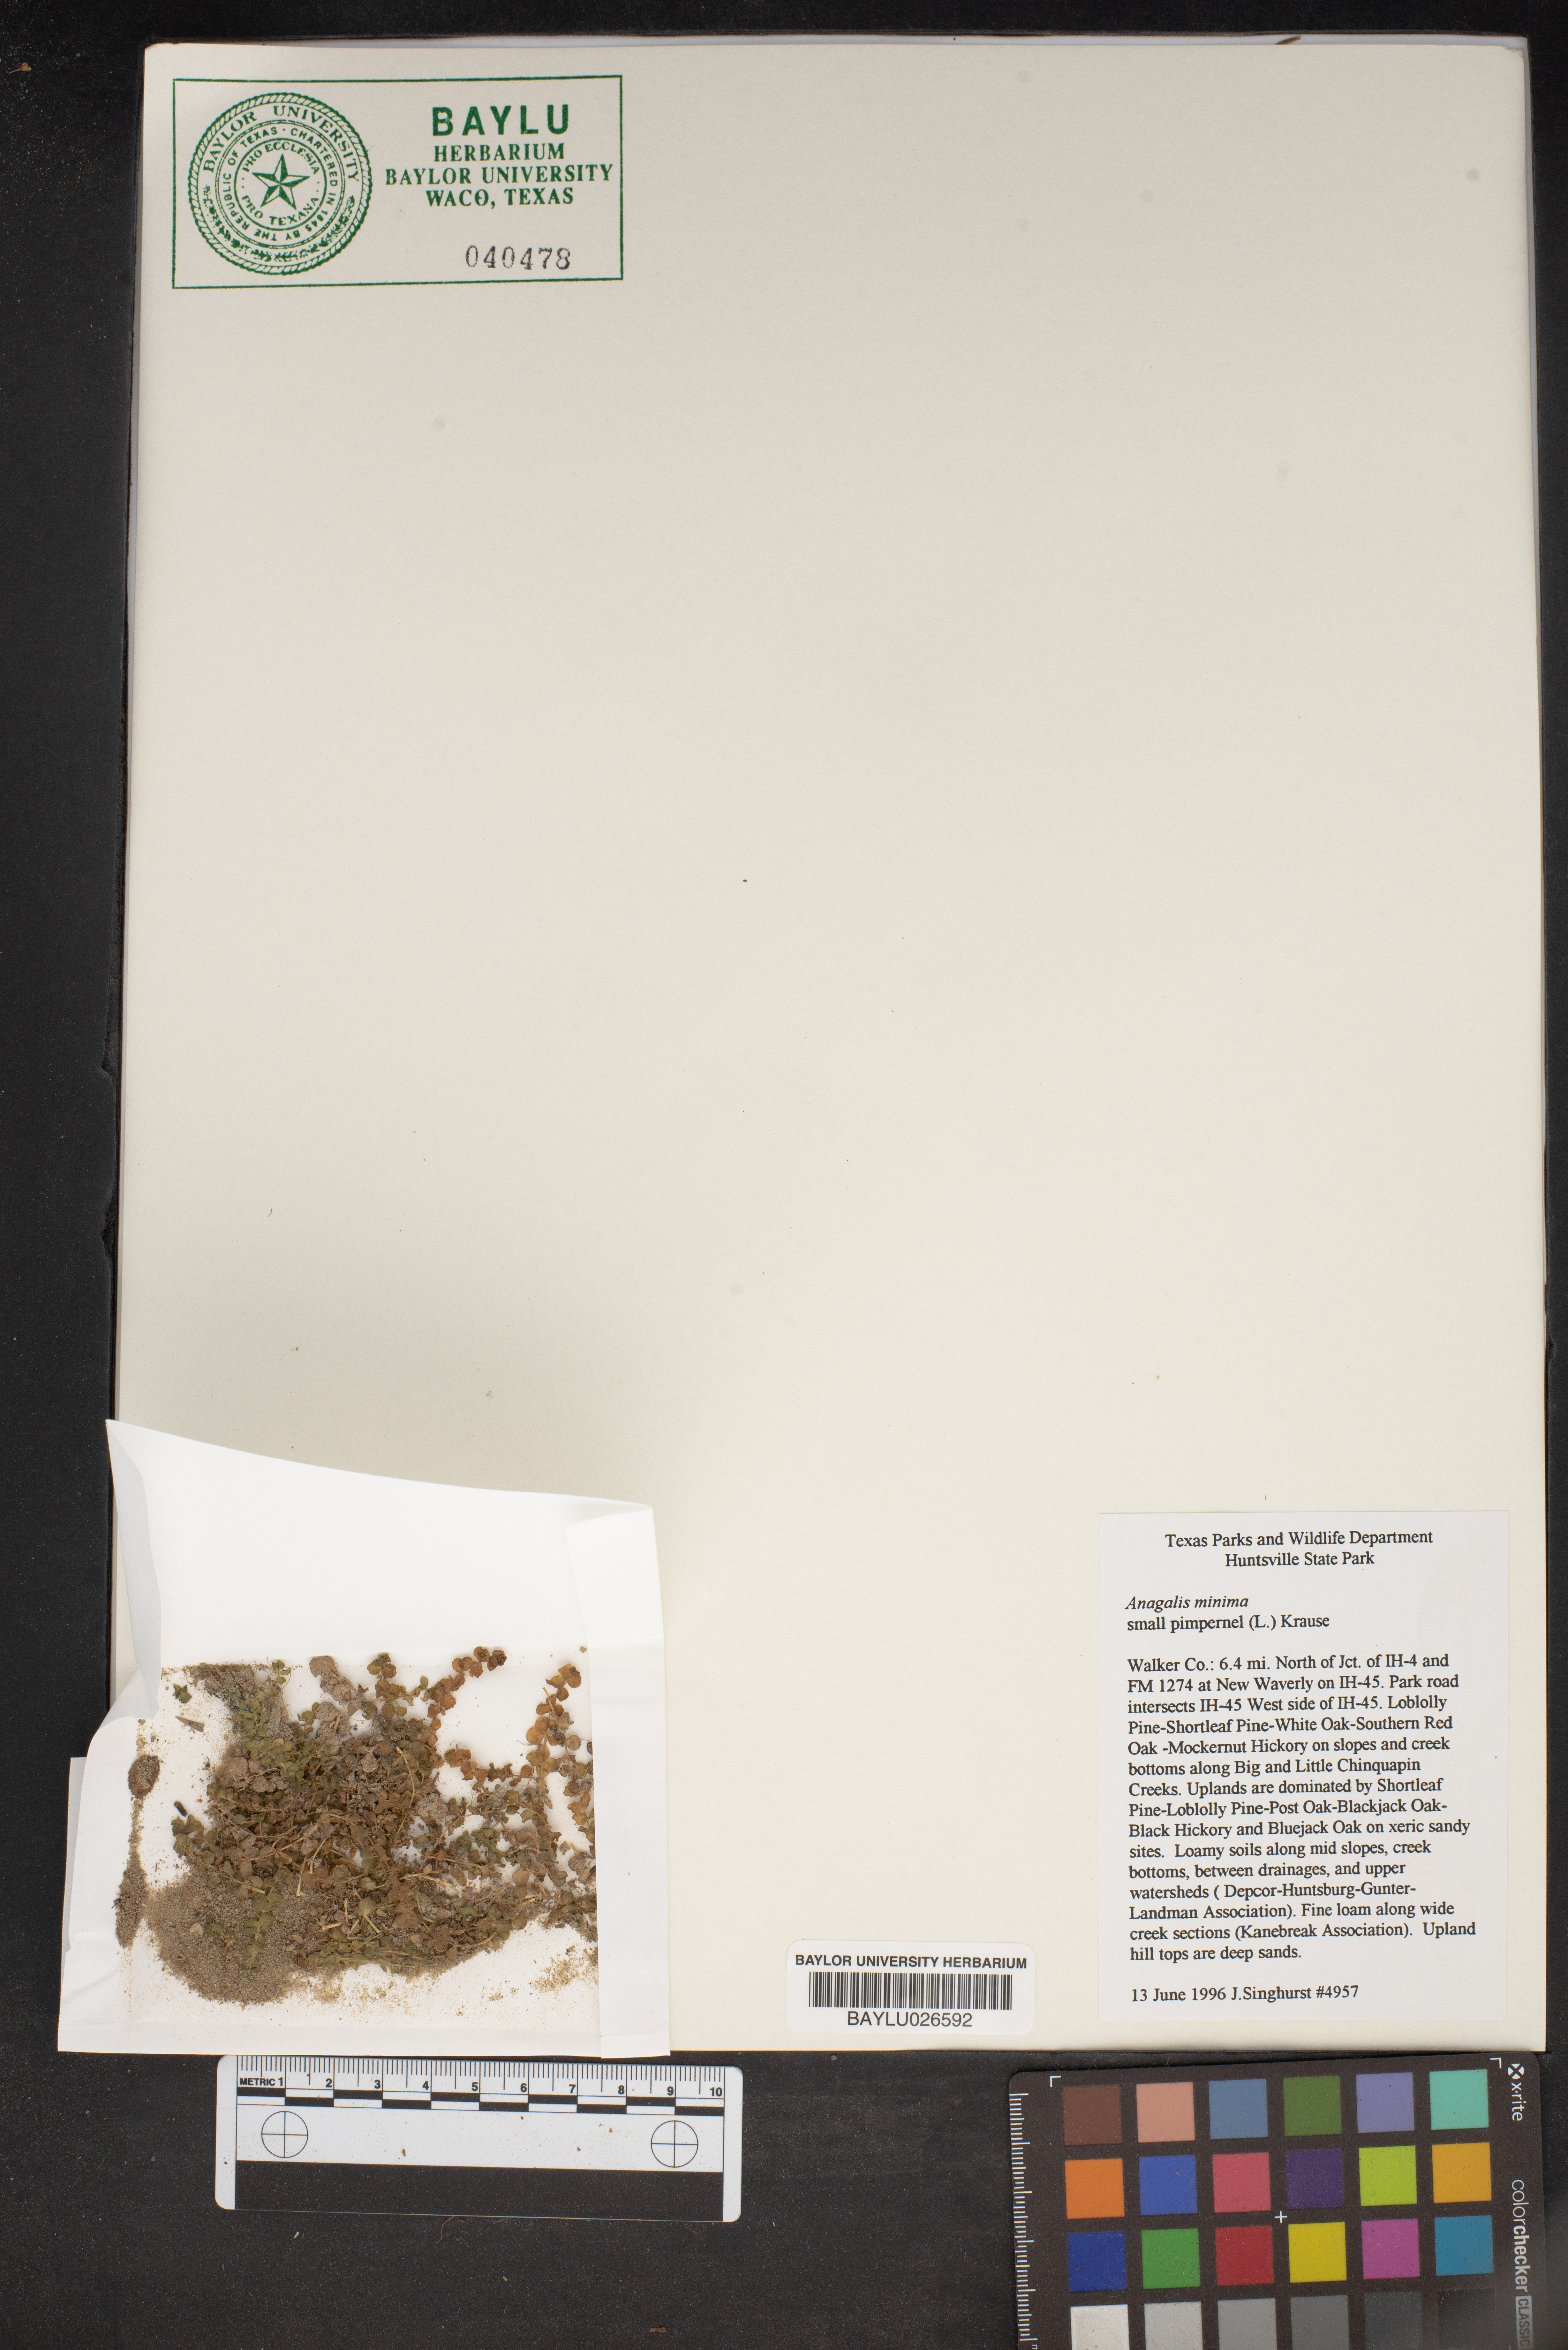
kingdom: Plantae
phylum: Tracheophyta
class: Magnoliopsida
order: Ericales
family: Primulaceae
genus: Lysimachia
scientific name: Lysimachia minima
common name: Chaffweed
